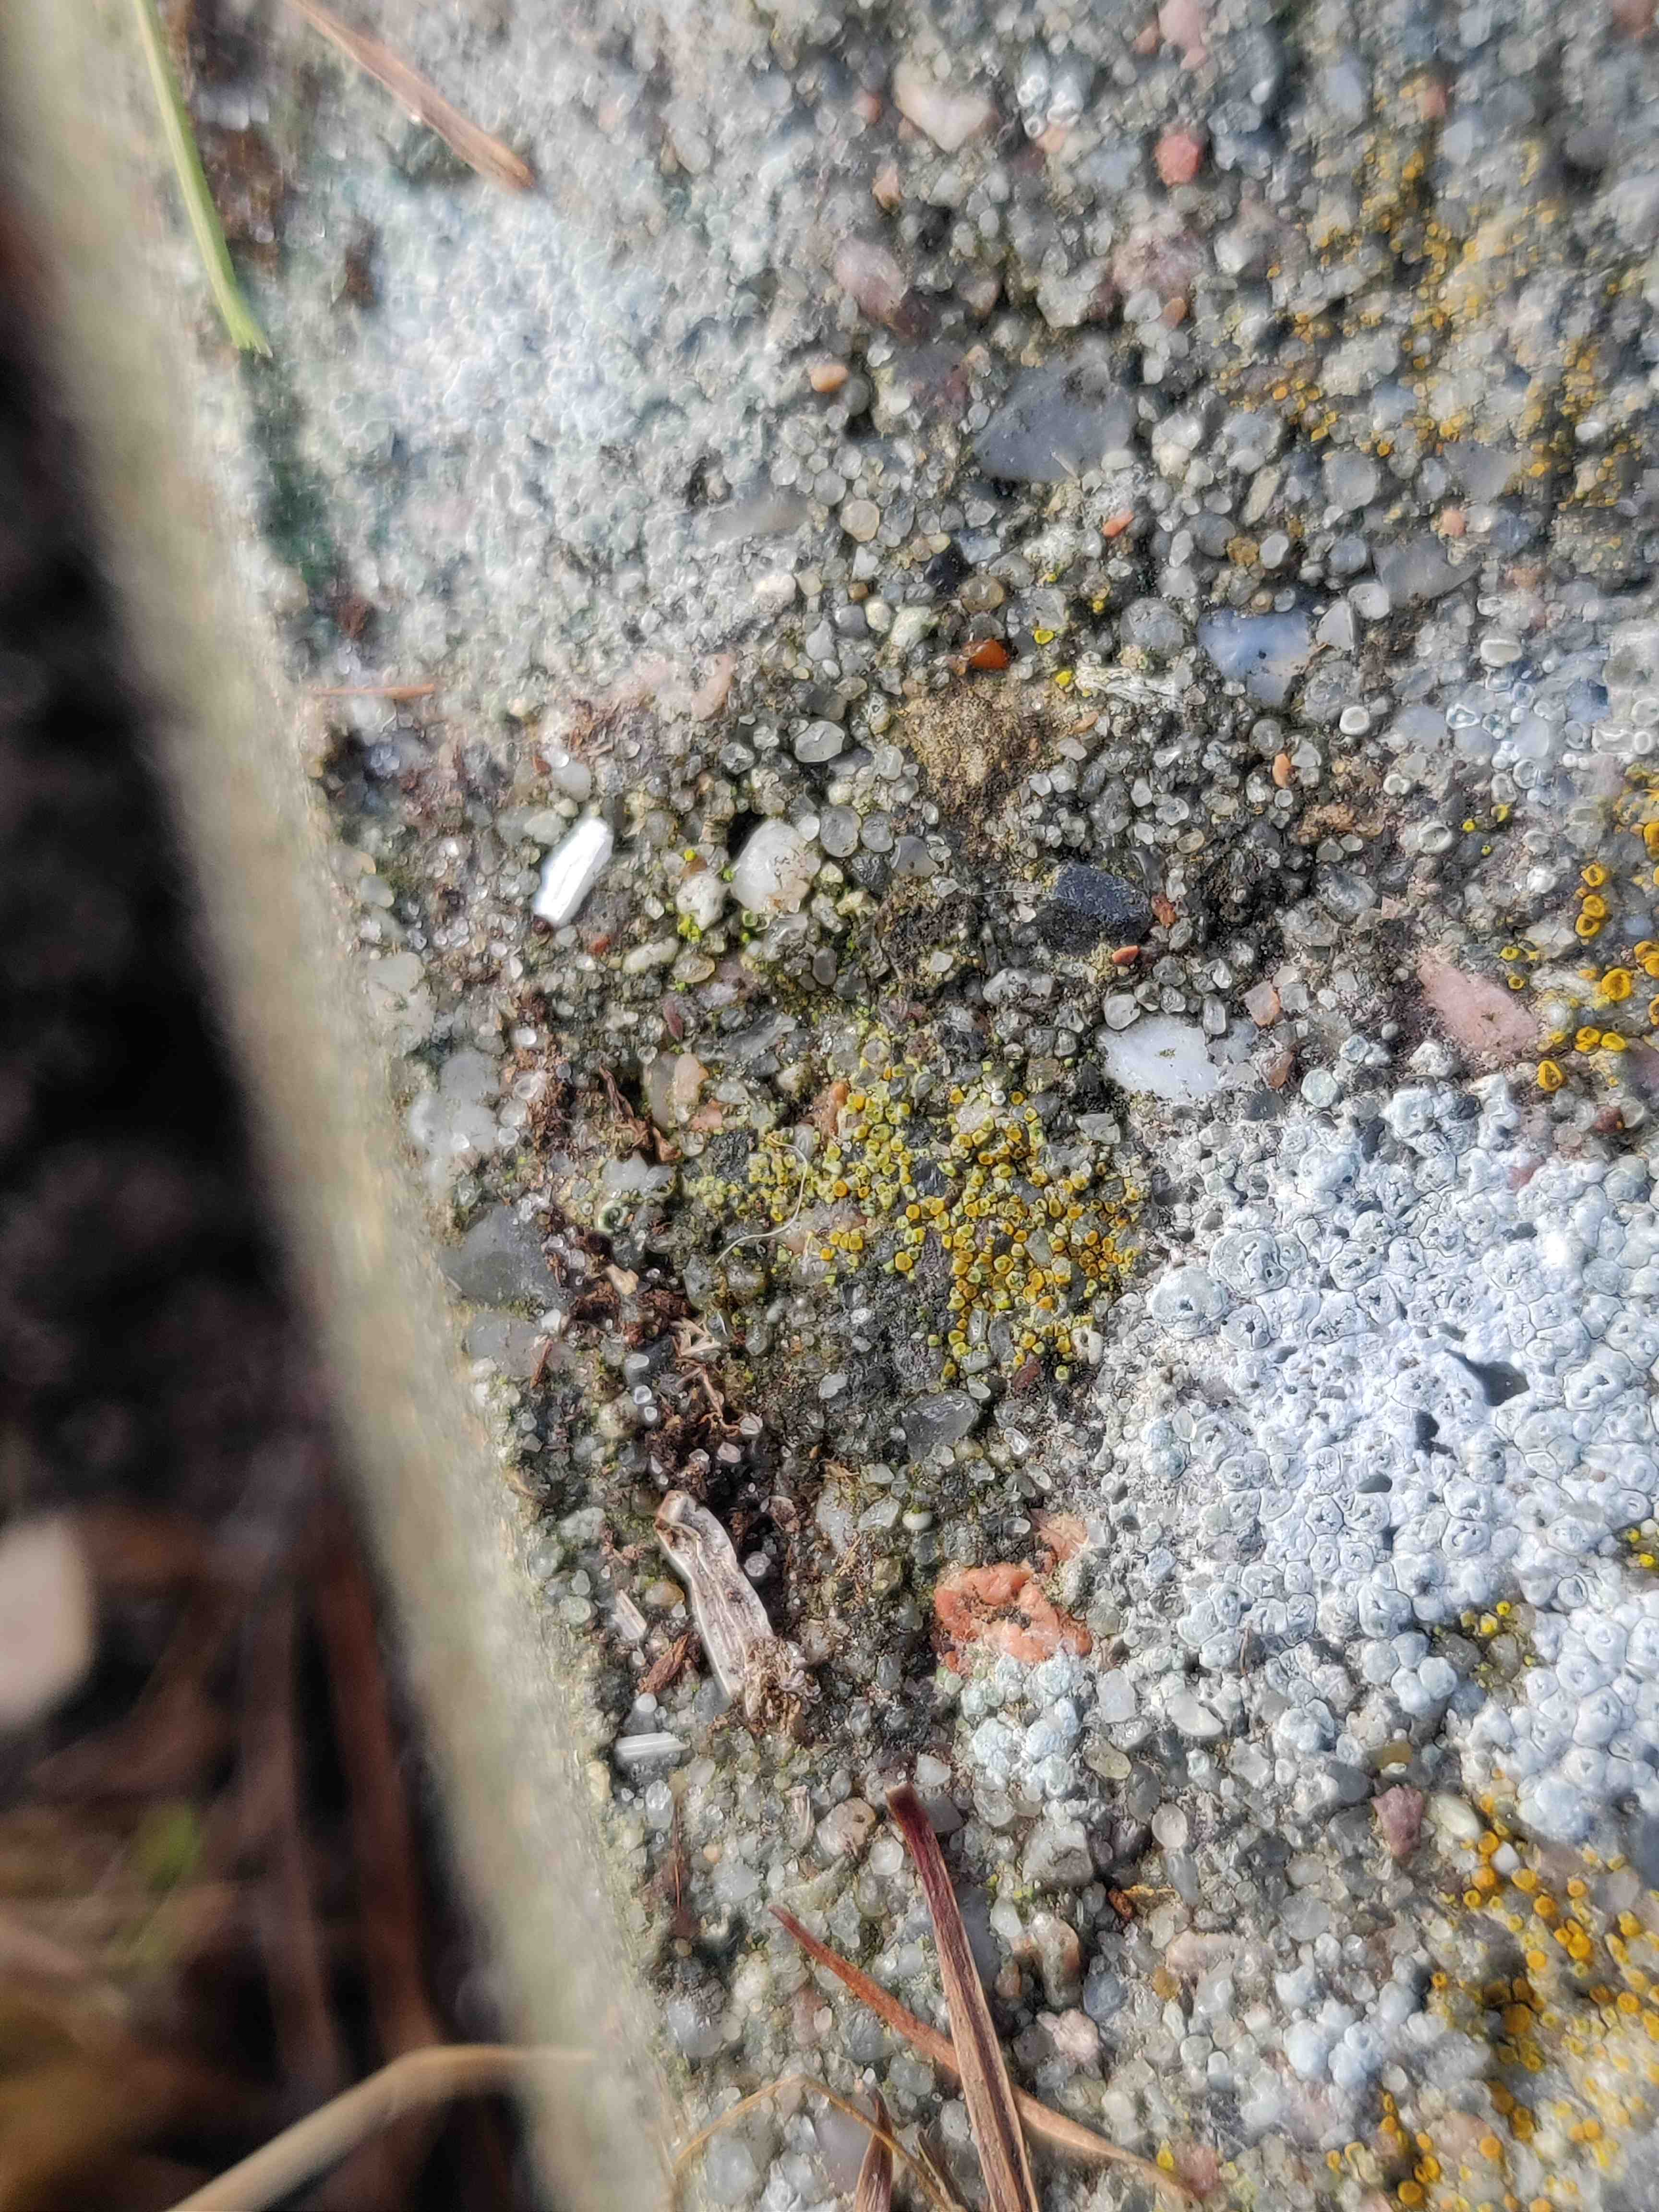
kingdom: Fungi
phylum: Ascomycota
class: Lecanoromycetes
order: Teloschistales
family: Teloschistaceae
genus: Athallia
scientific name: Athallia
